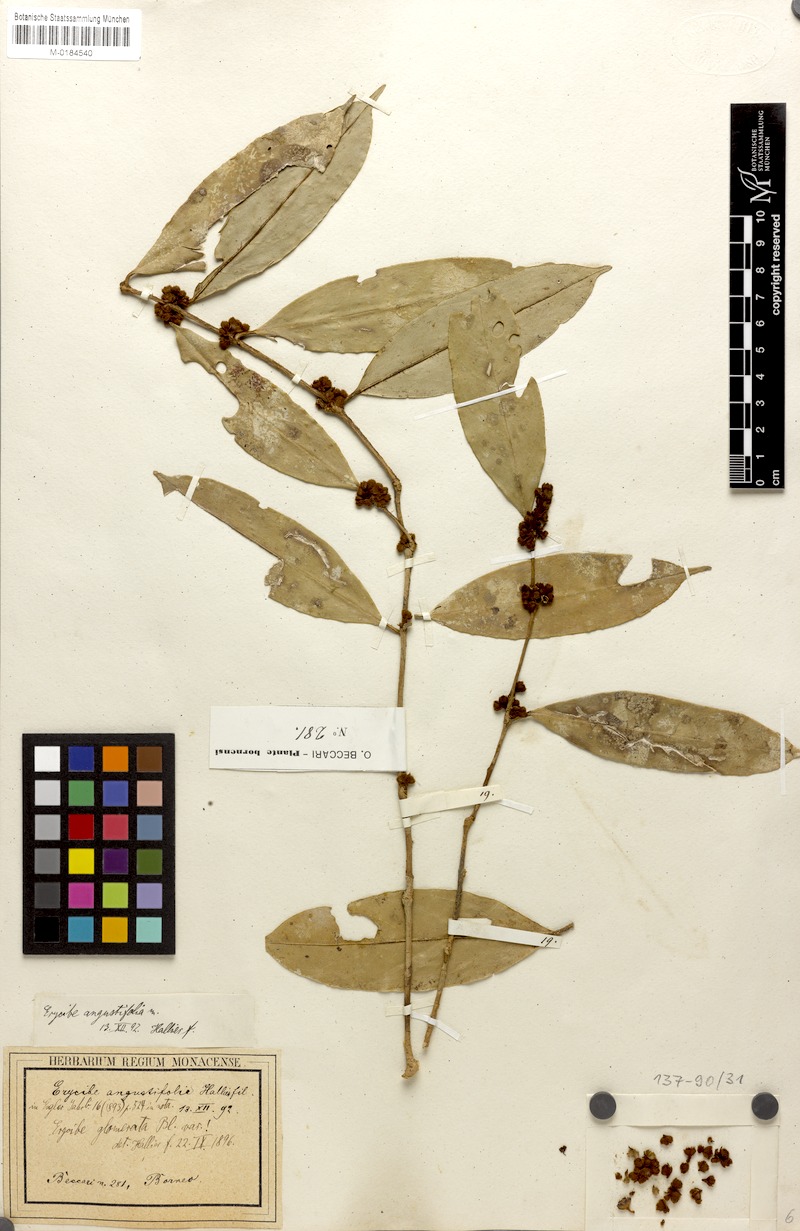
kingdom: Plantae
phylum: Tracheophyta
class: Magnoliopsida
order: Solanales
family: Convolvulaceae
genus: Erycibe
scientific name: Erycibe glomerata
